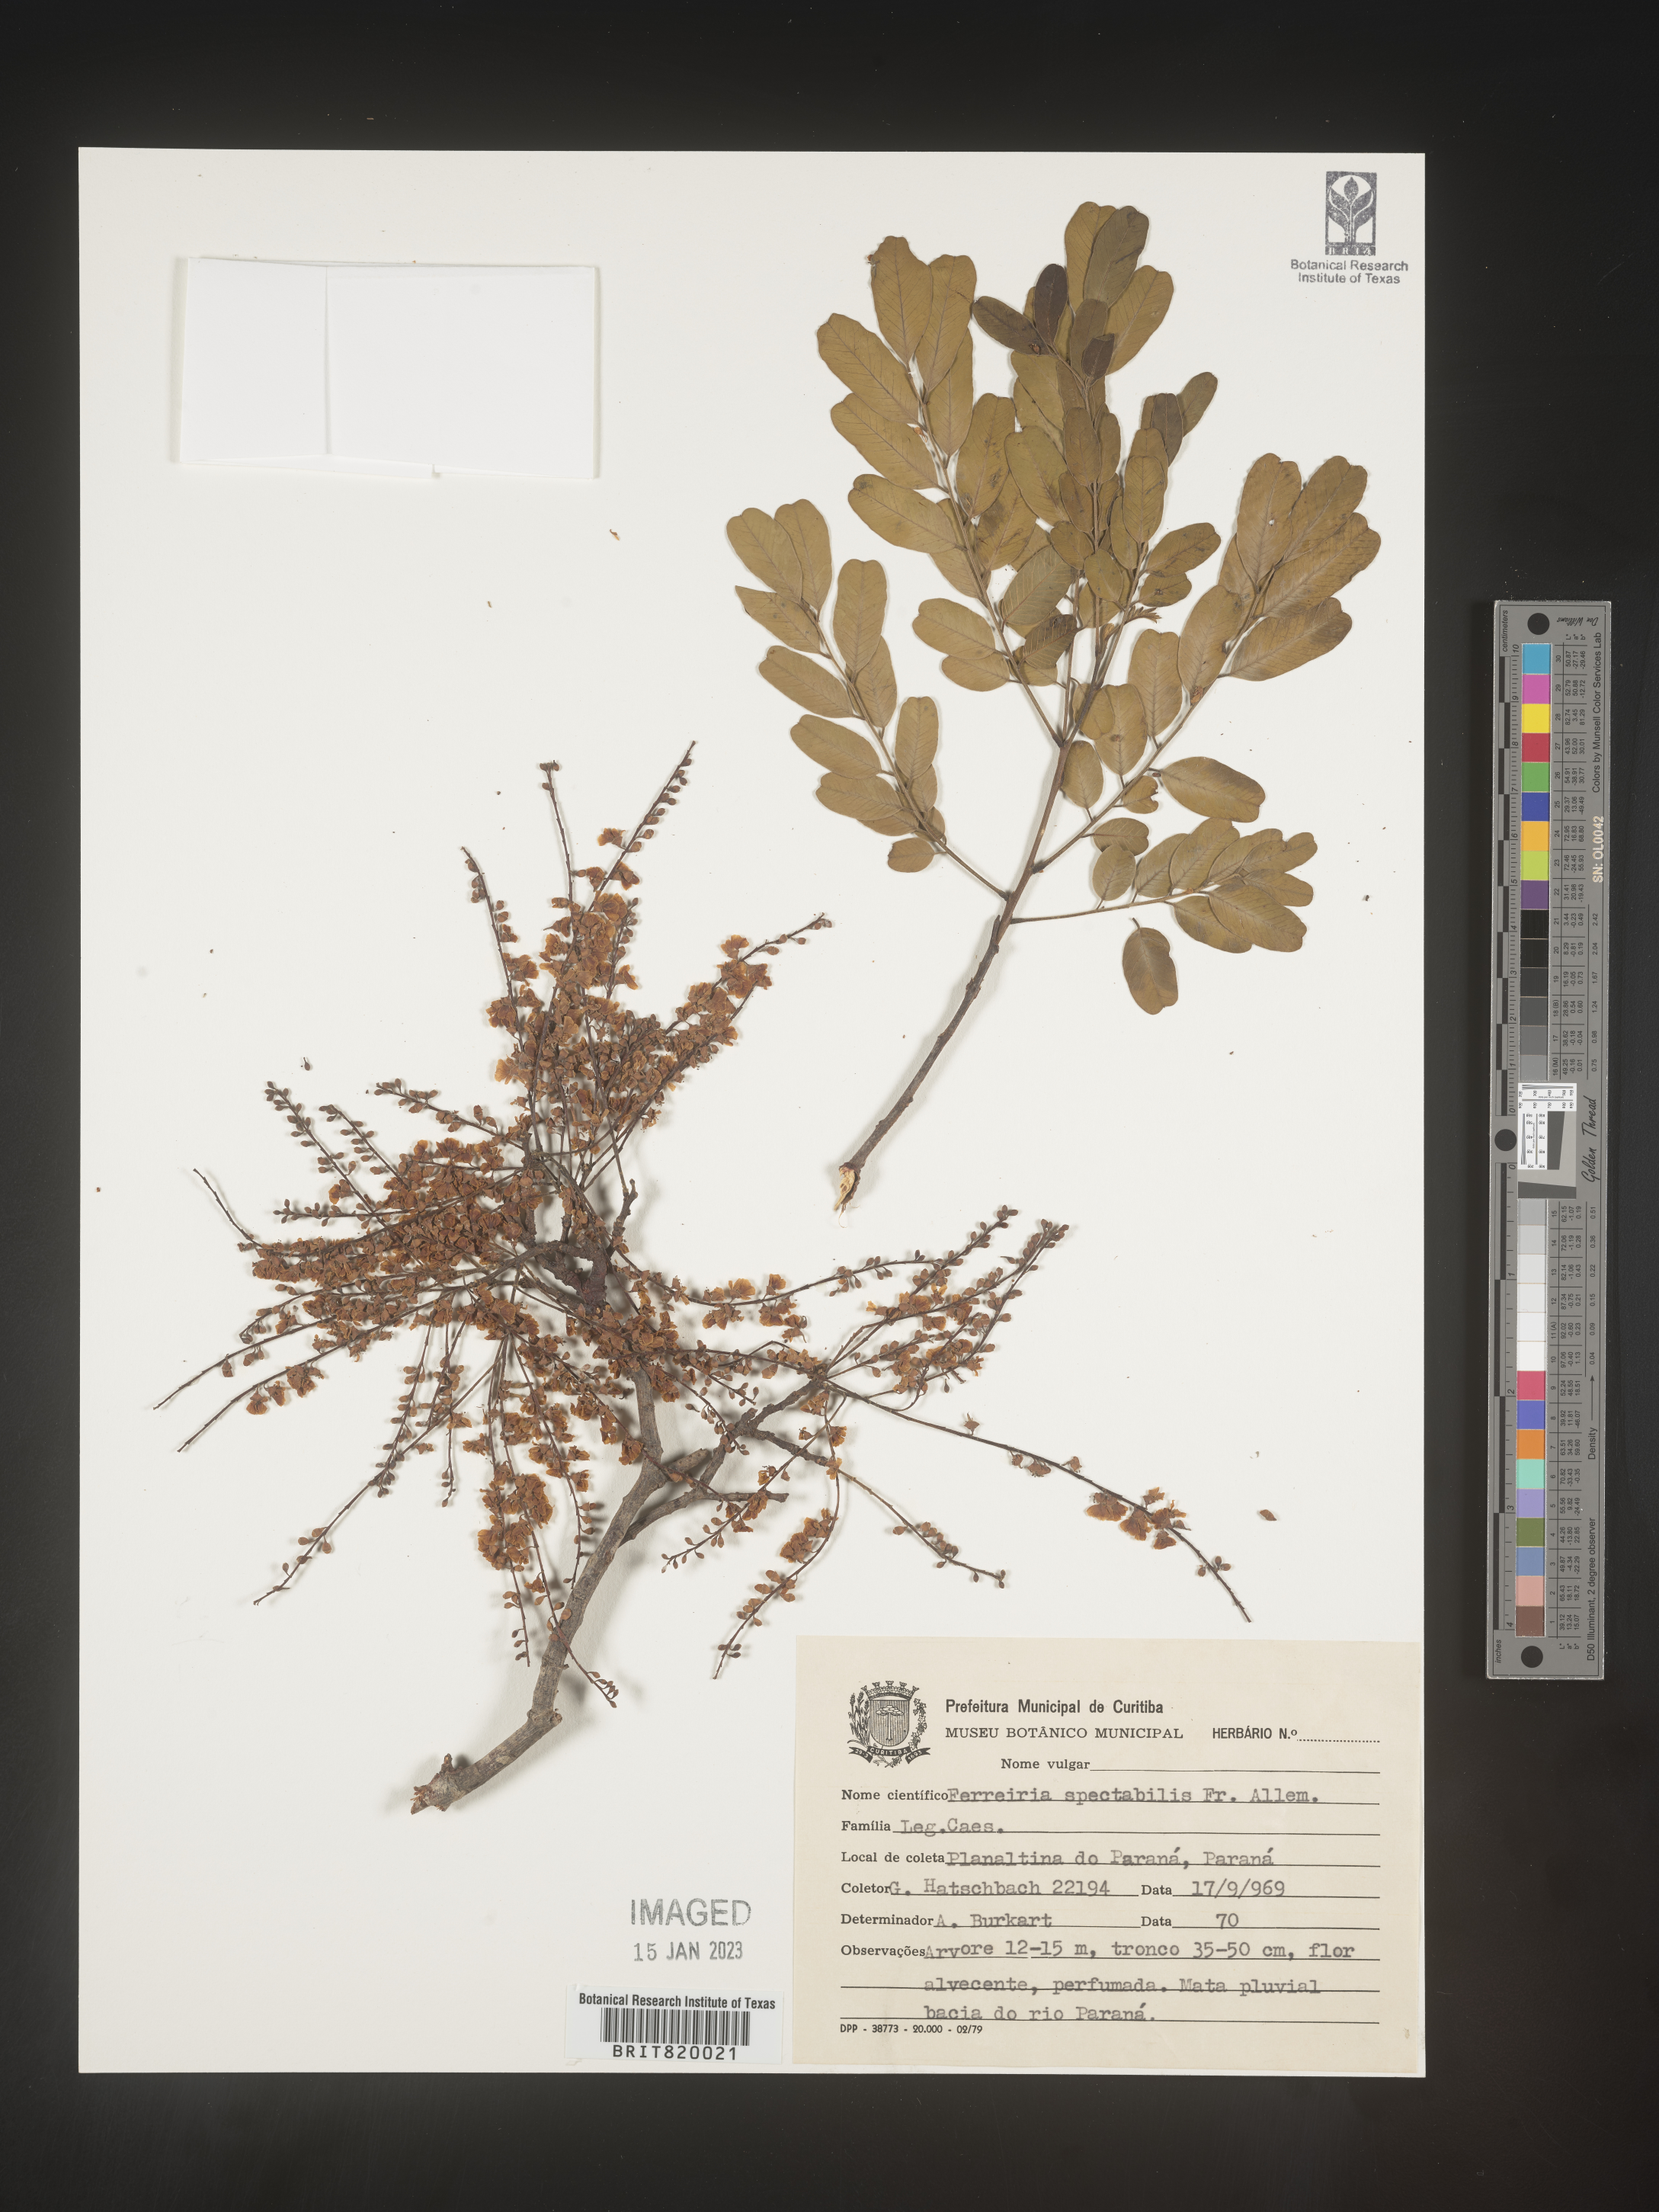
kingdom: Plantae
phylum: Tracheophyta
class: Magnoliopsida
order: Fabales
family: Fabaceae
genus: Sweetia
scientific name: Sweetia fruticosa
